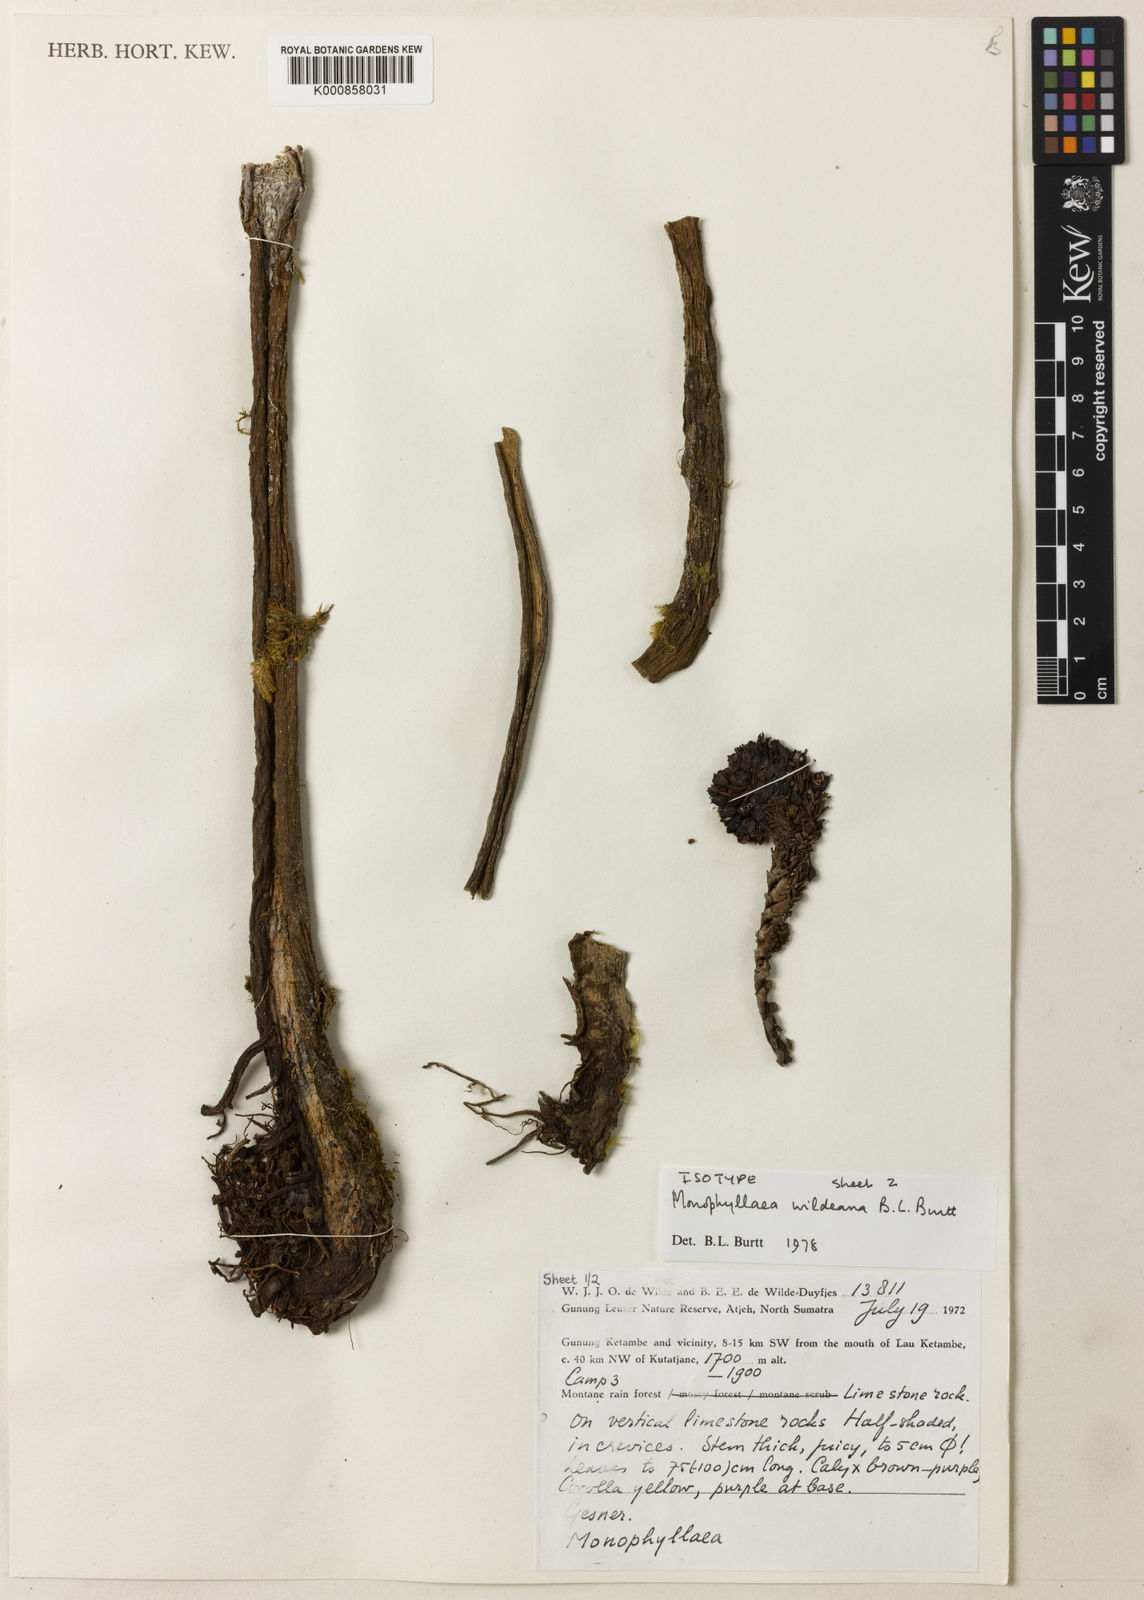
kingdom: Plantae
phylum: Tracheophyta
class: Magnoliopsida
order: Lamiales
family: Gesneriaceae
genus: Monophyllaea
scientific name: Monophyllaea wildeana
